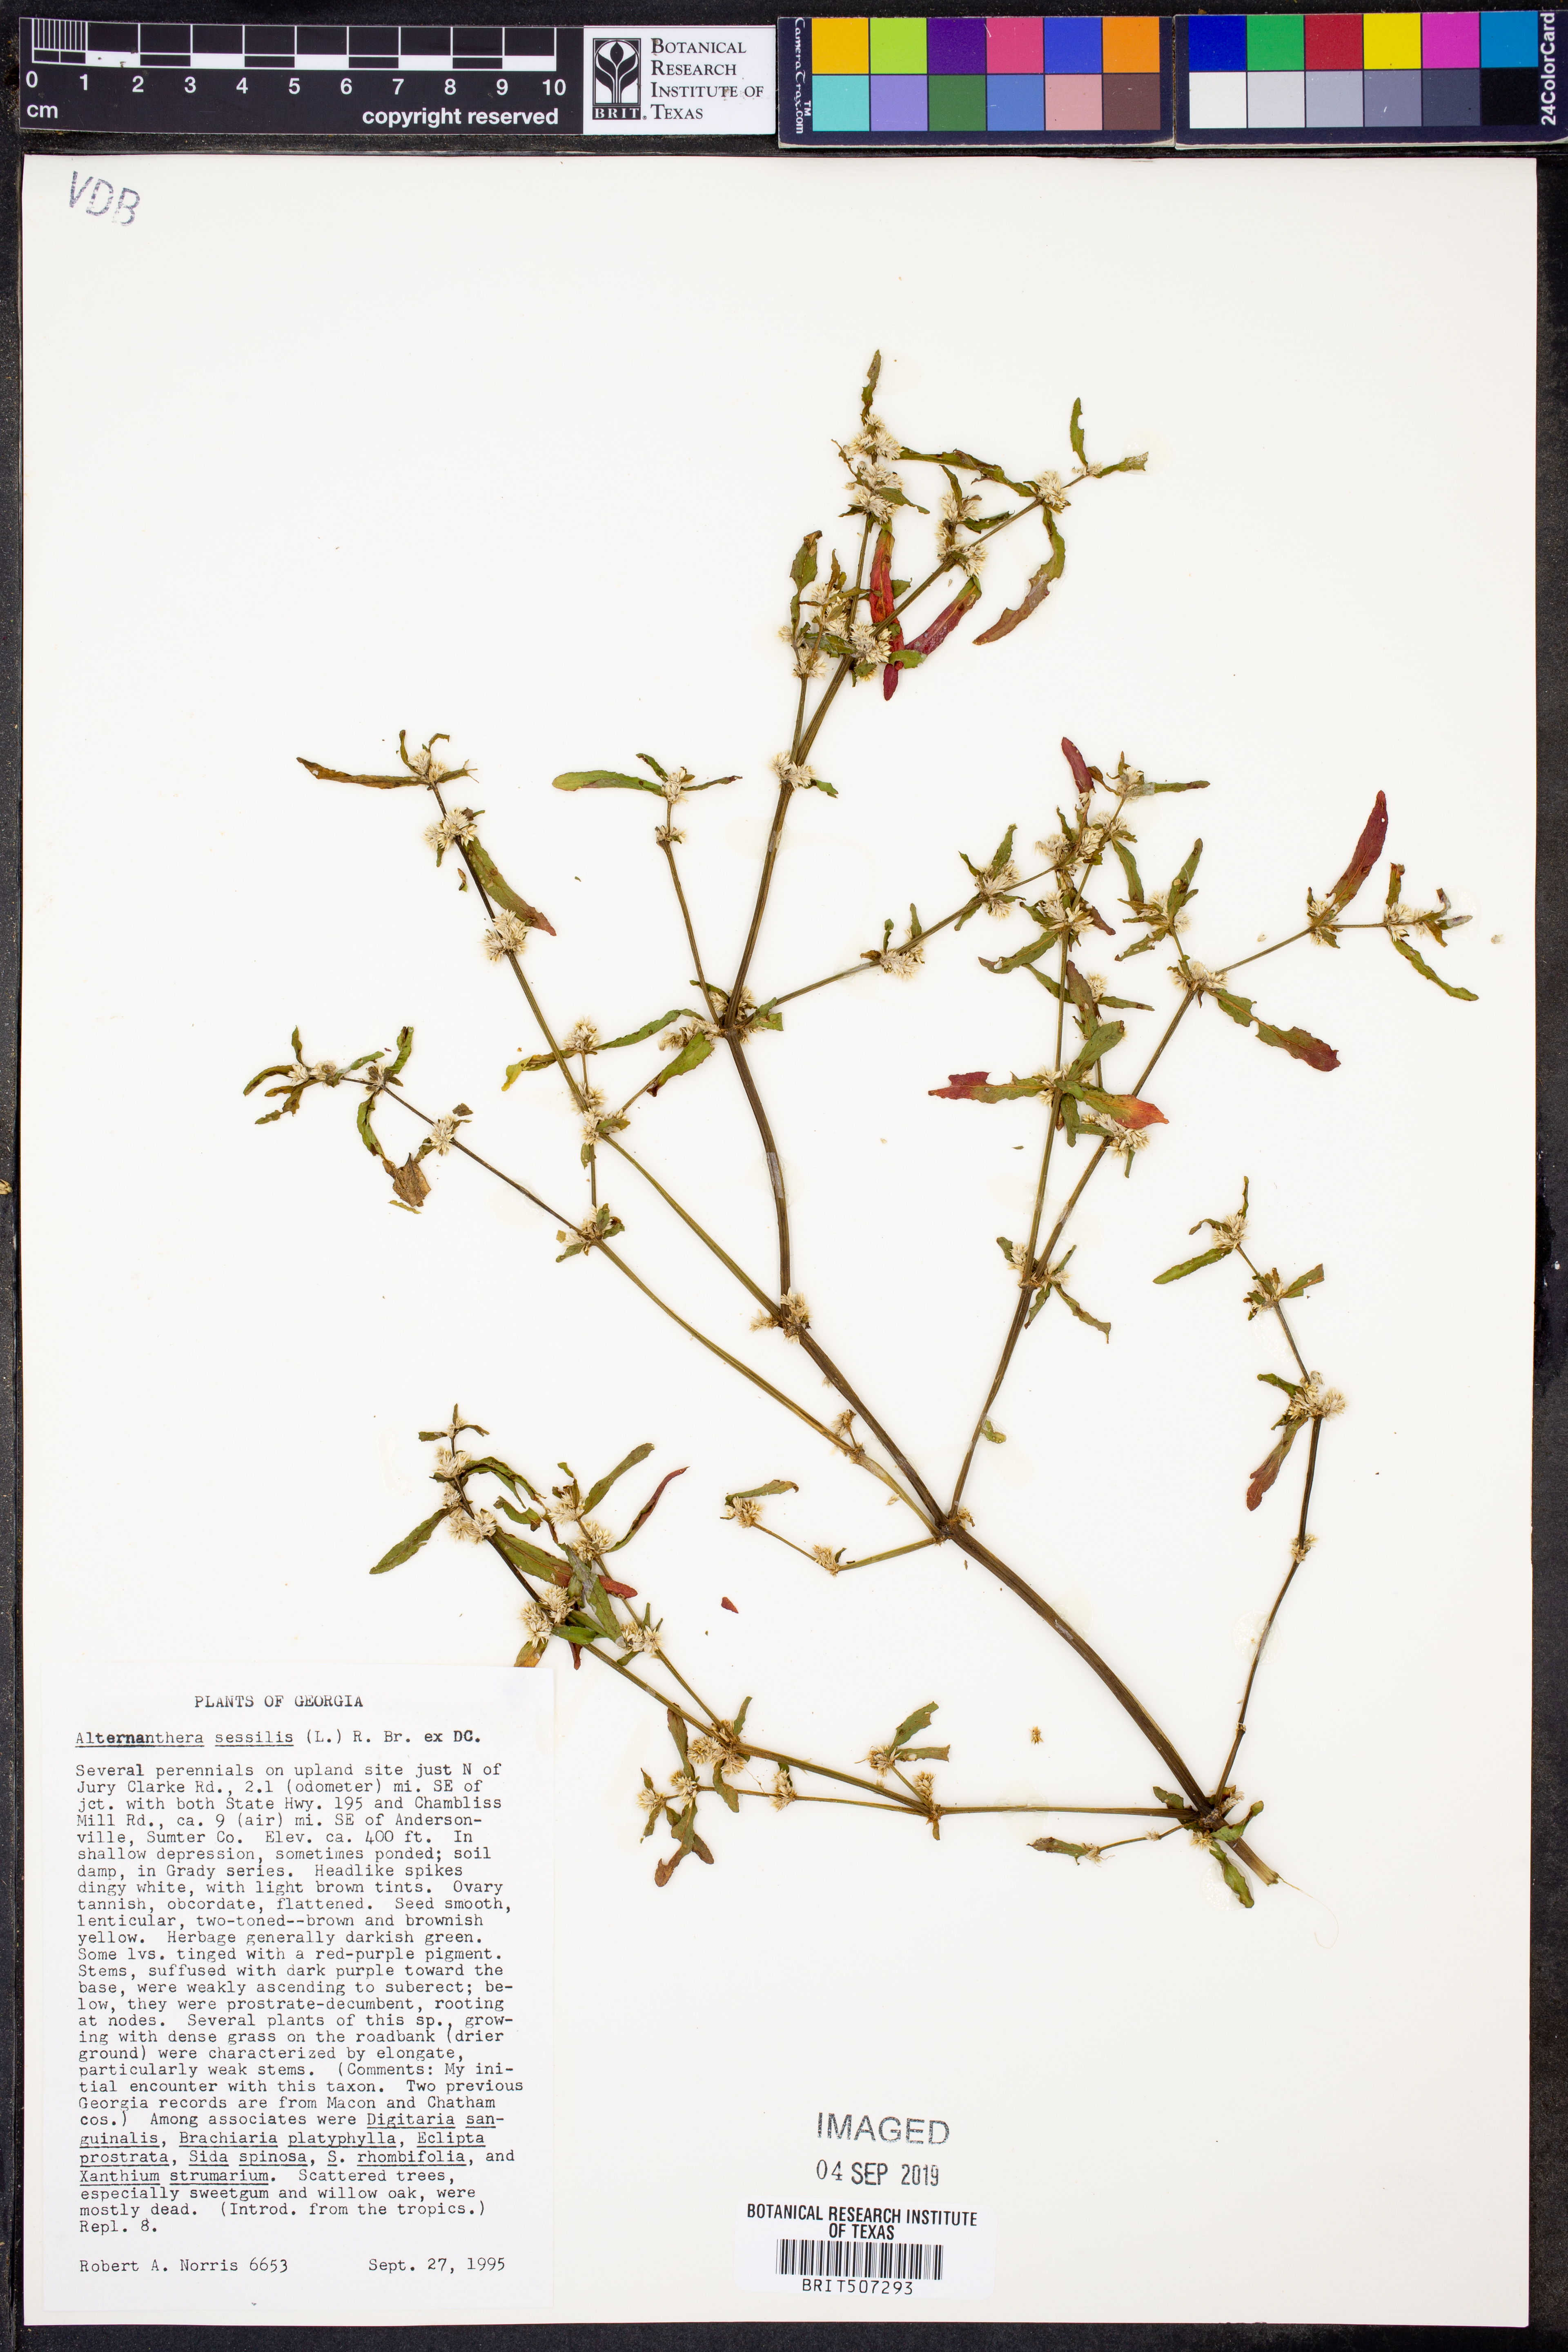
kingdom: Plantae
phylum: Tracheophyta
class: Magnoliopsida
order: Caryophyllales
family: Amaranthaceae
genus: Alternanthera
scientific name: Alternanthera sessilis
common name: Sessile joyweed
